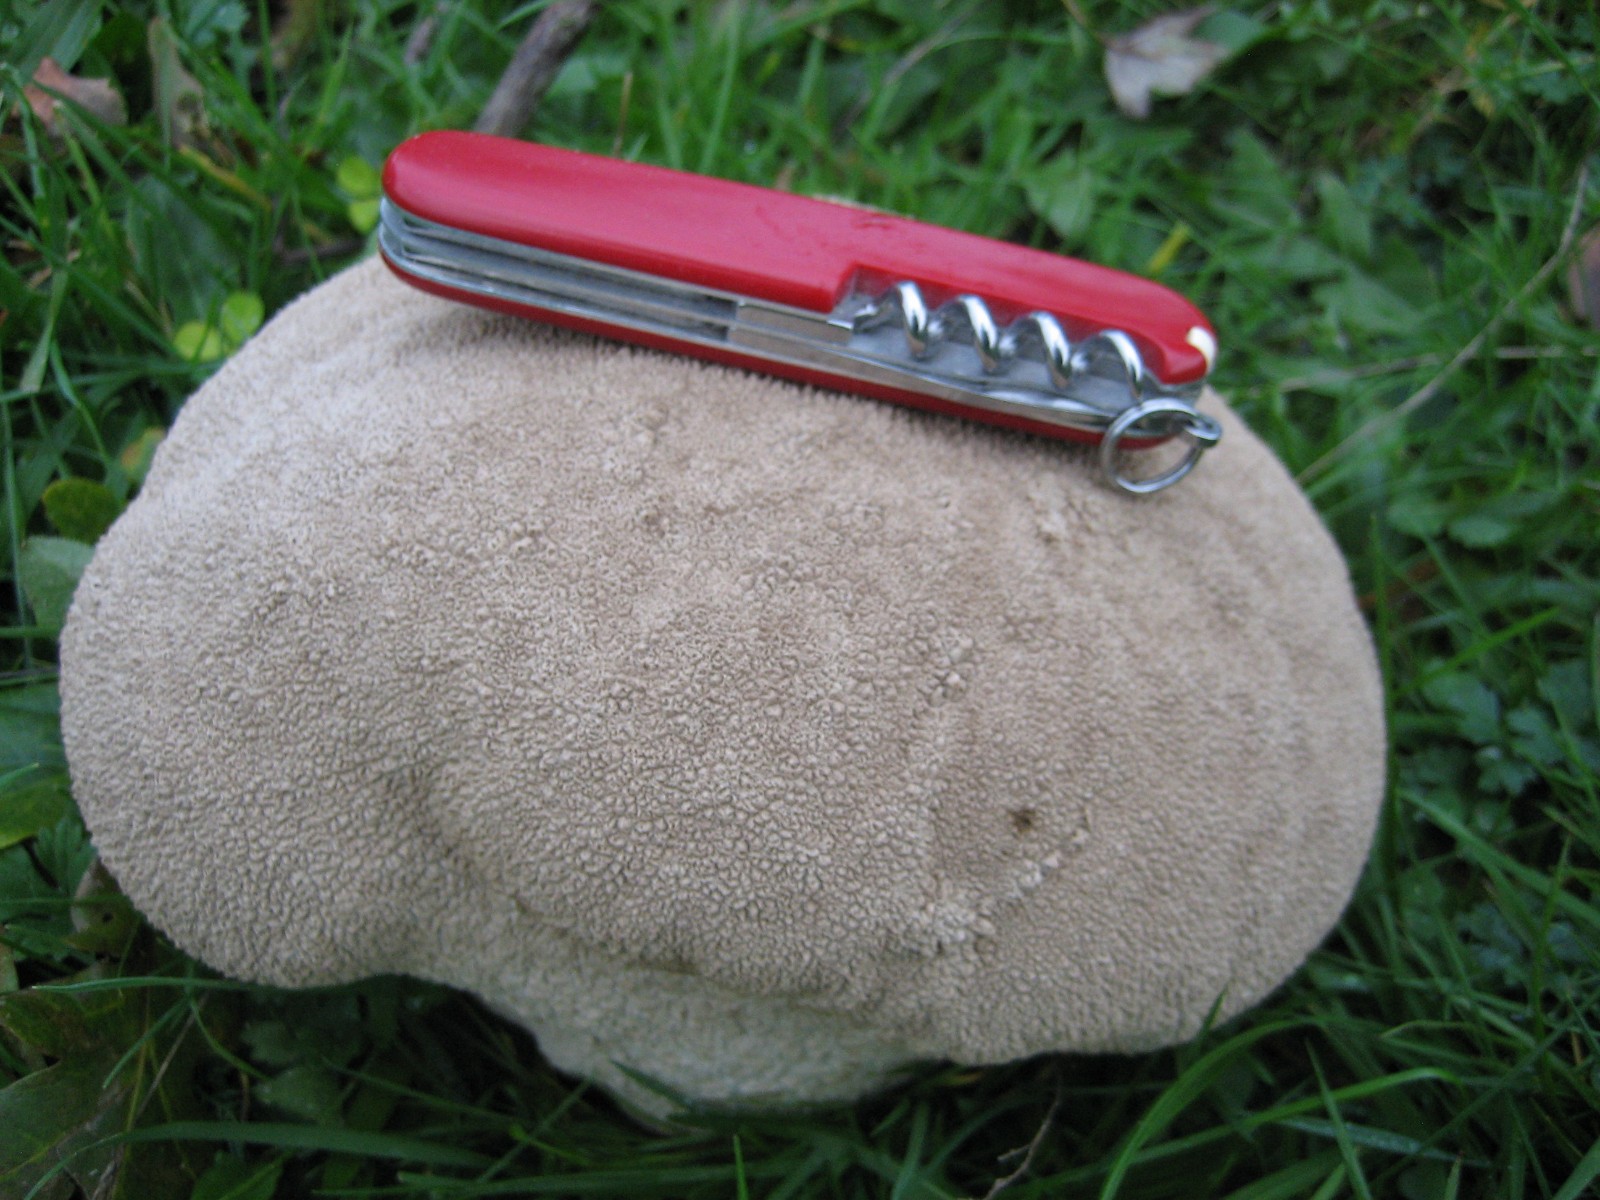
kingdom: Fungi
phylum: Basidiomycota
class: Agaricomycetes
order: Agaricales
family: Lycoperdaceae
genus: Bovistella
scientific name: Bovistella utriformis
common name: skællet støvbold
